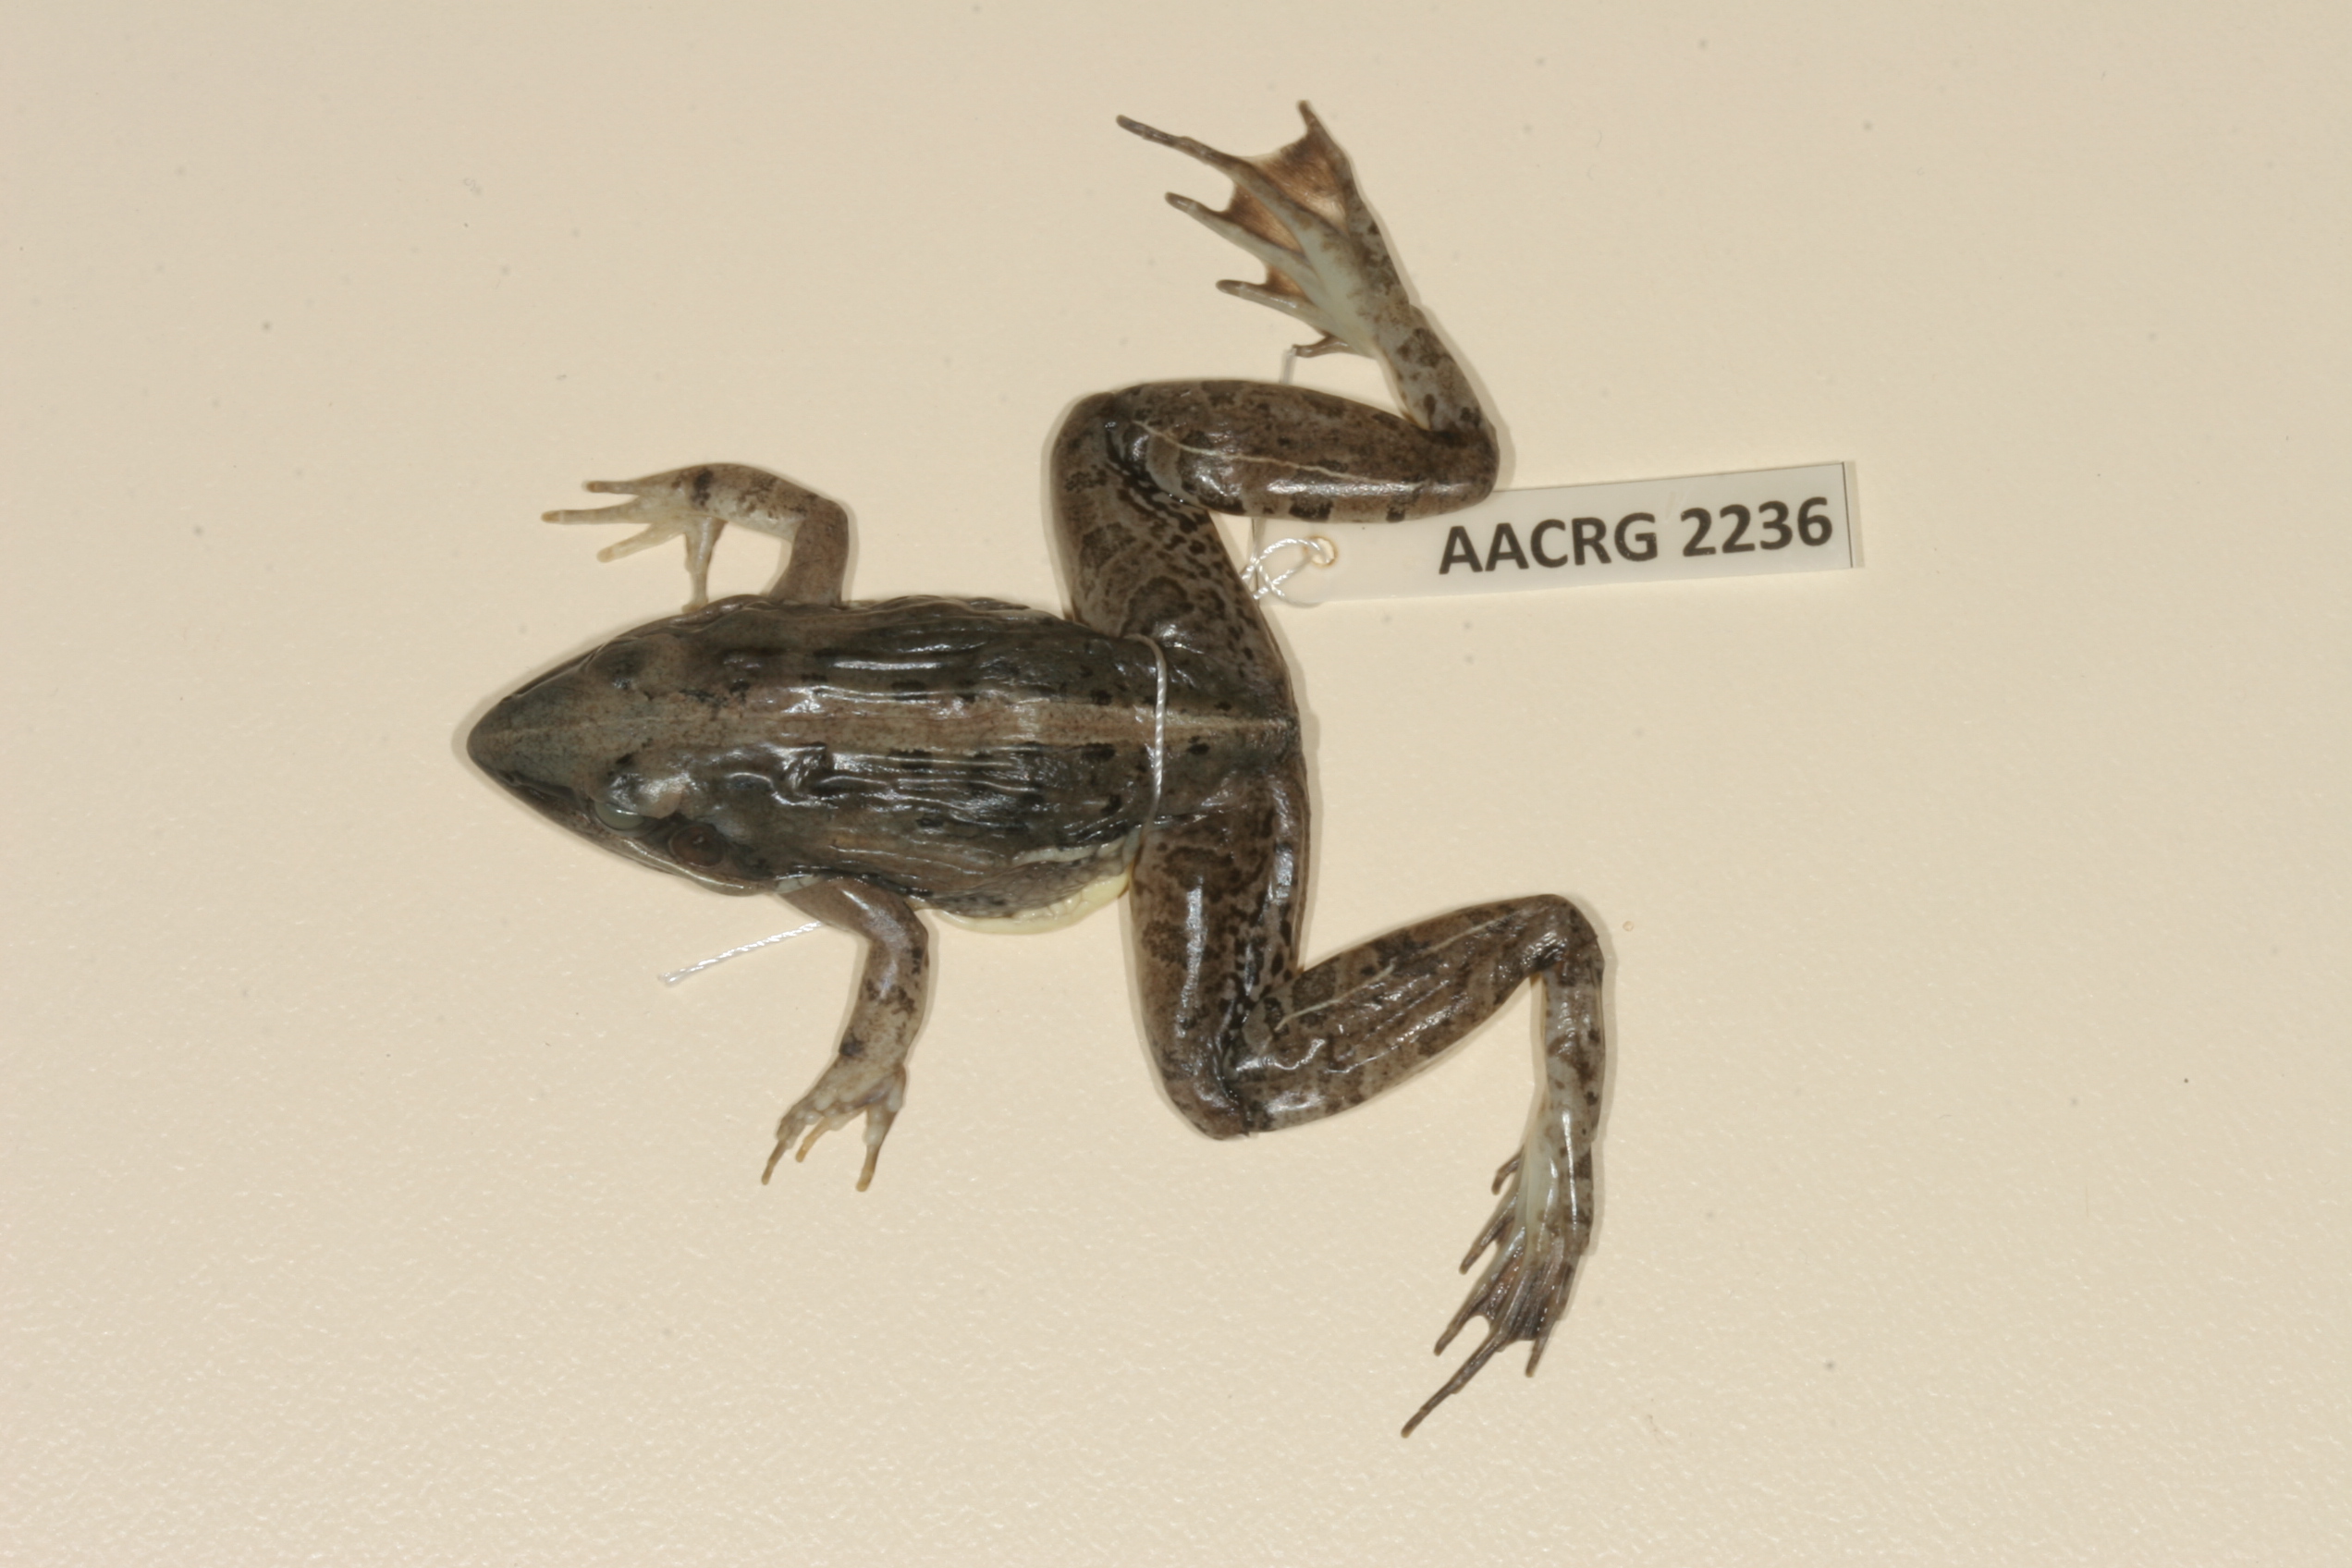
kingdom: Animalia
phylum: Chordata
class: Amphibia
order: Anura
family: Ptychadenidae
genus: Ptychadena
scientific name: Ptychadena mossambica
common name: Mozambique ridged frog
